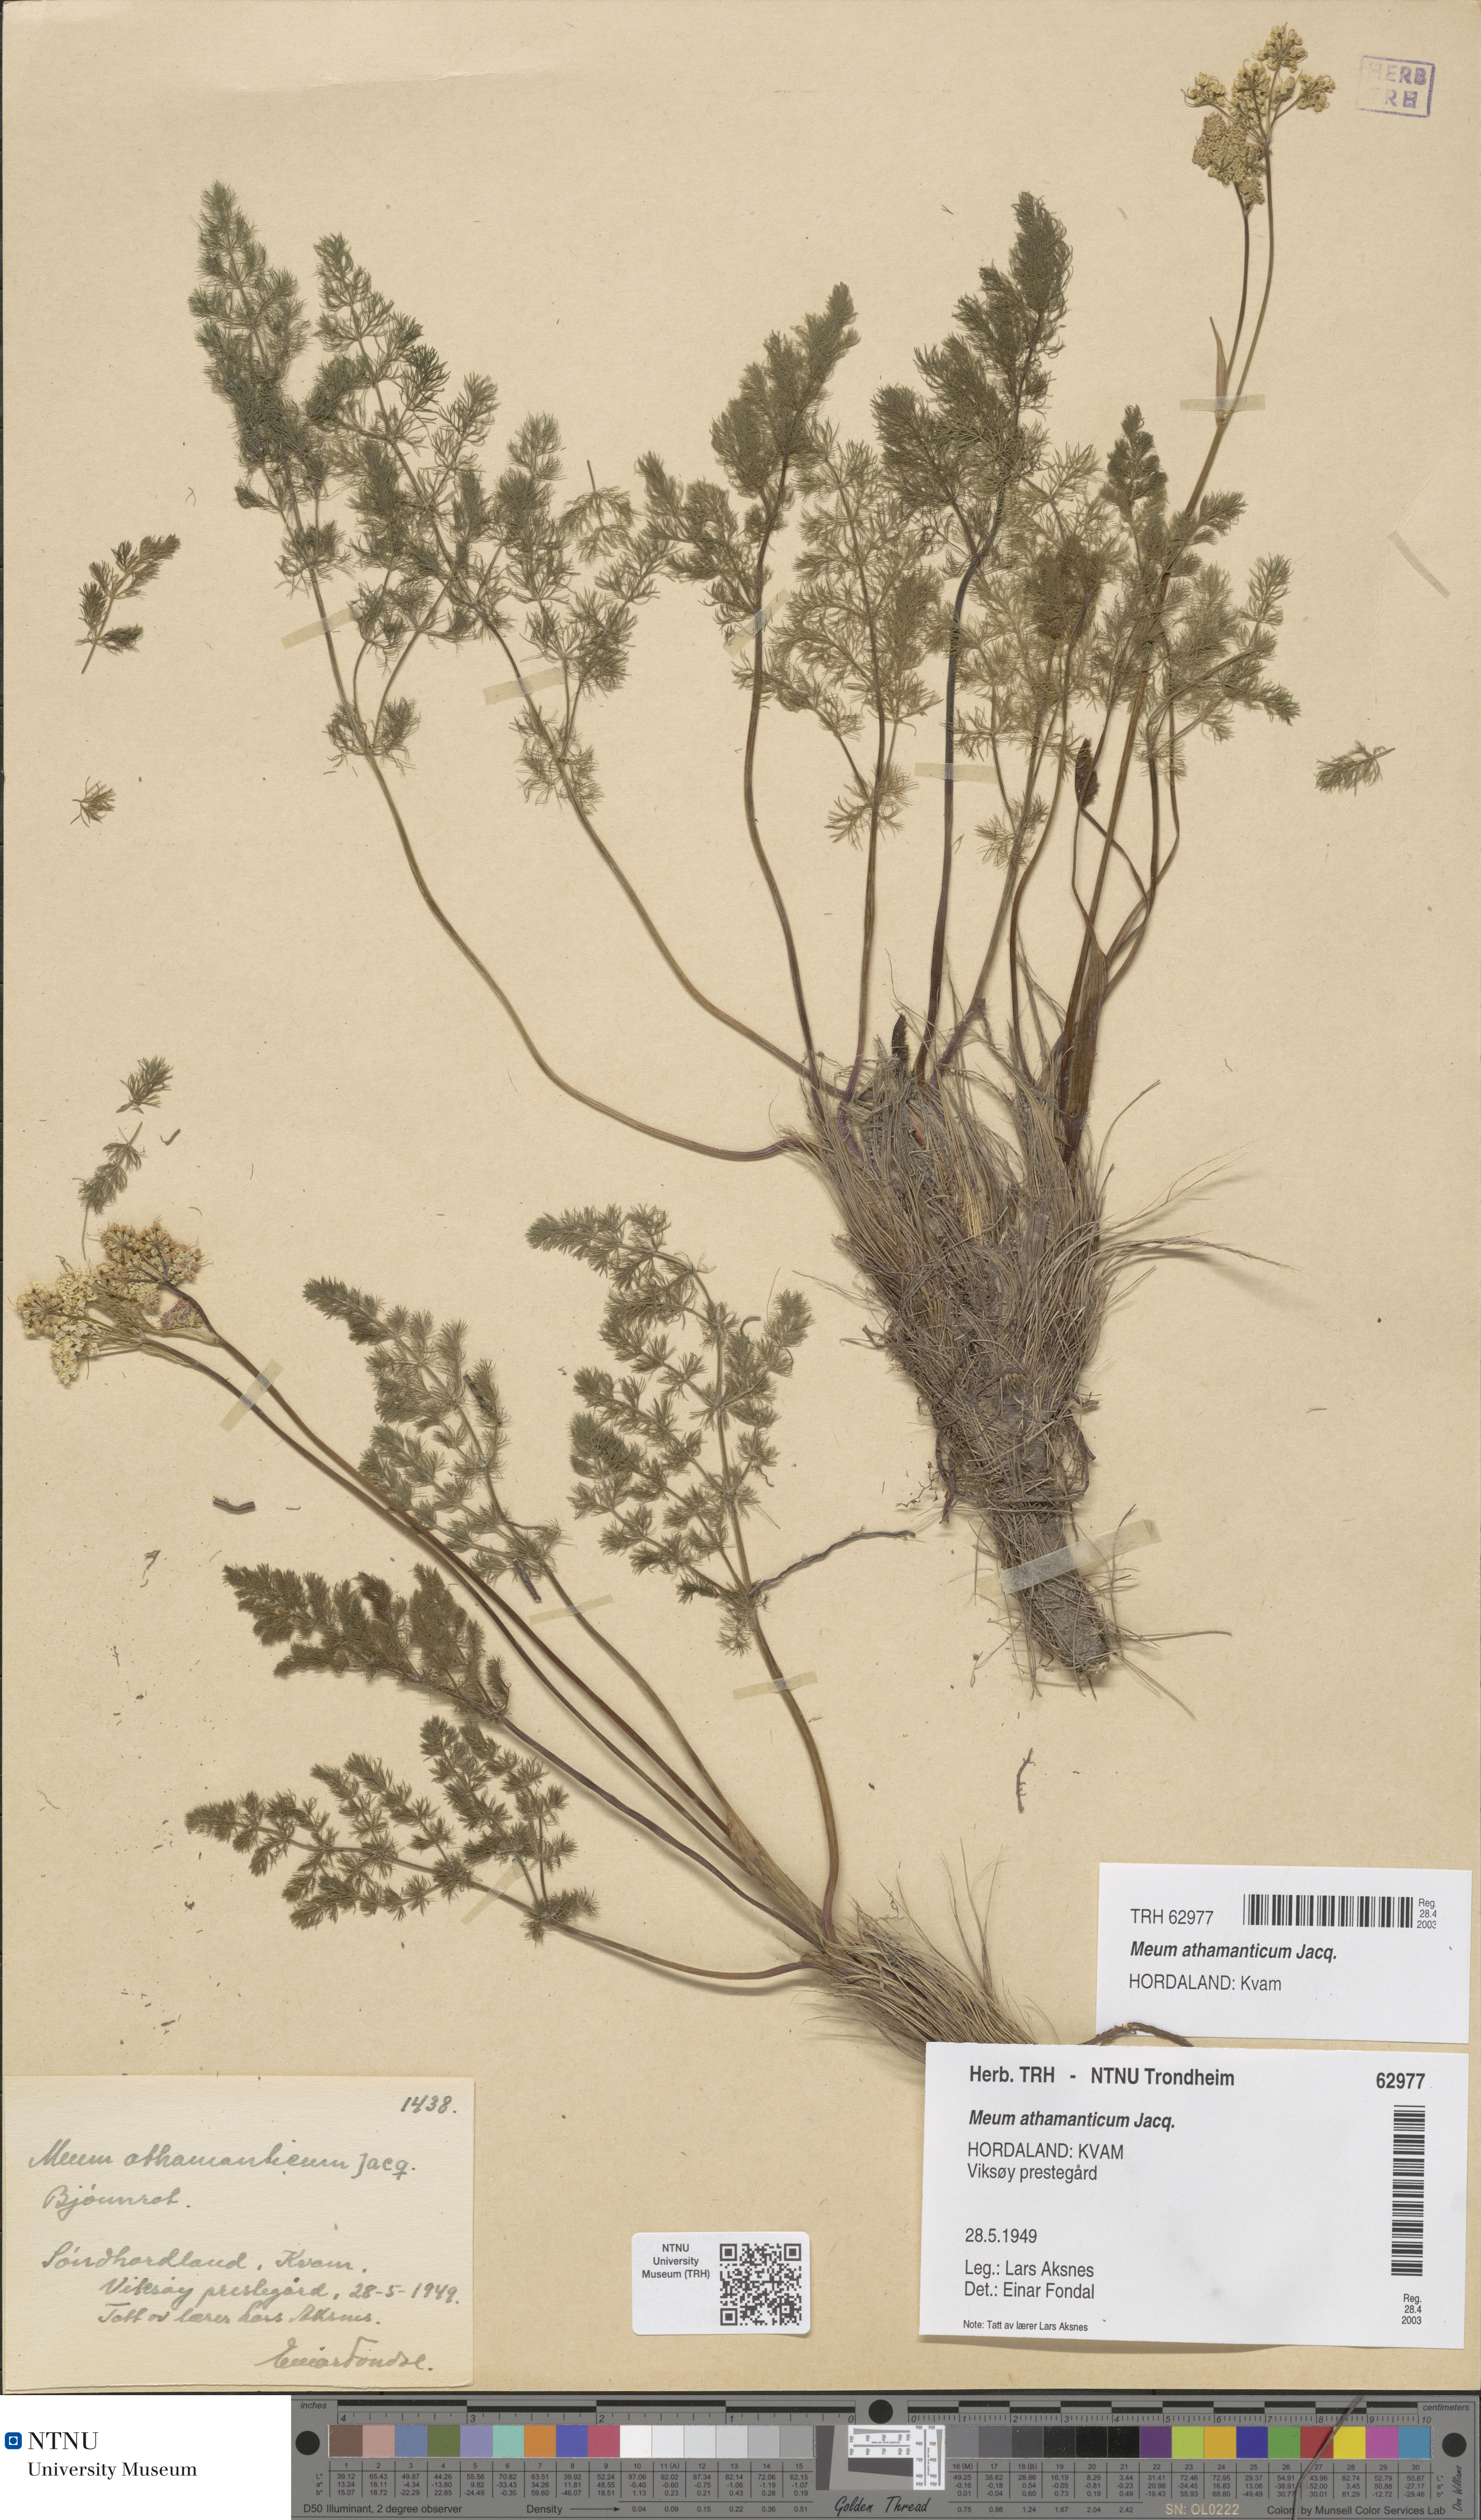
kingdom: Plantae
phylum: Tracheophyta
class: Magnoliopsida
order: Apiales
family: Apiaceae
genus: Meum
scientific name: Meum athamanticum
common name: Spignel
